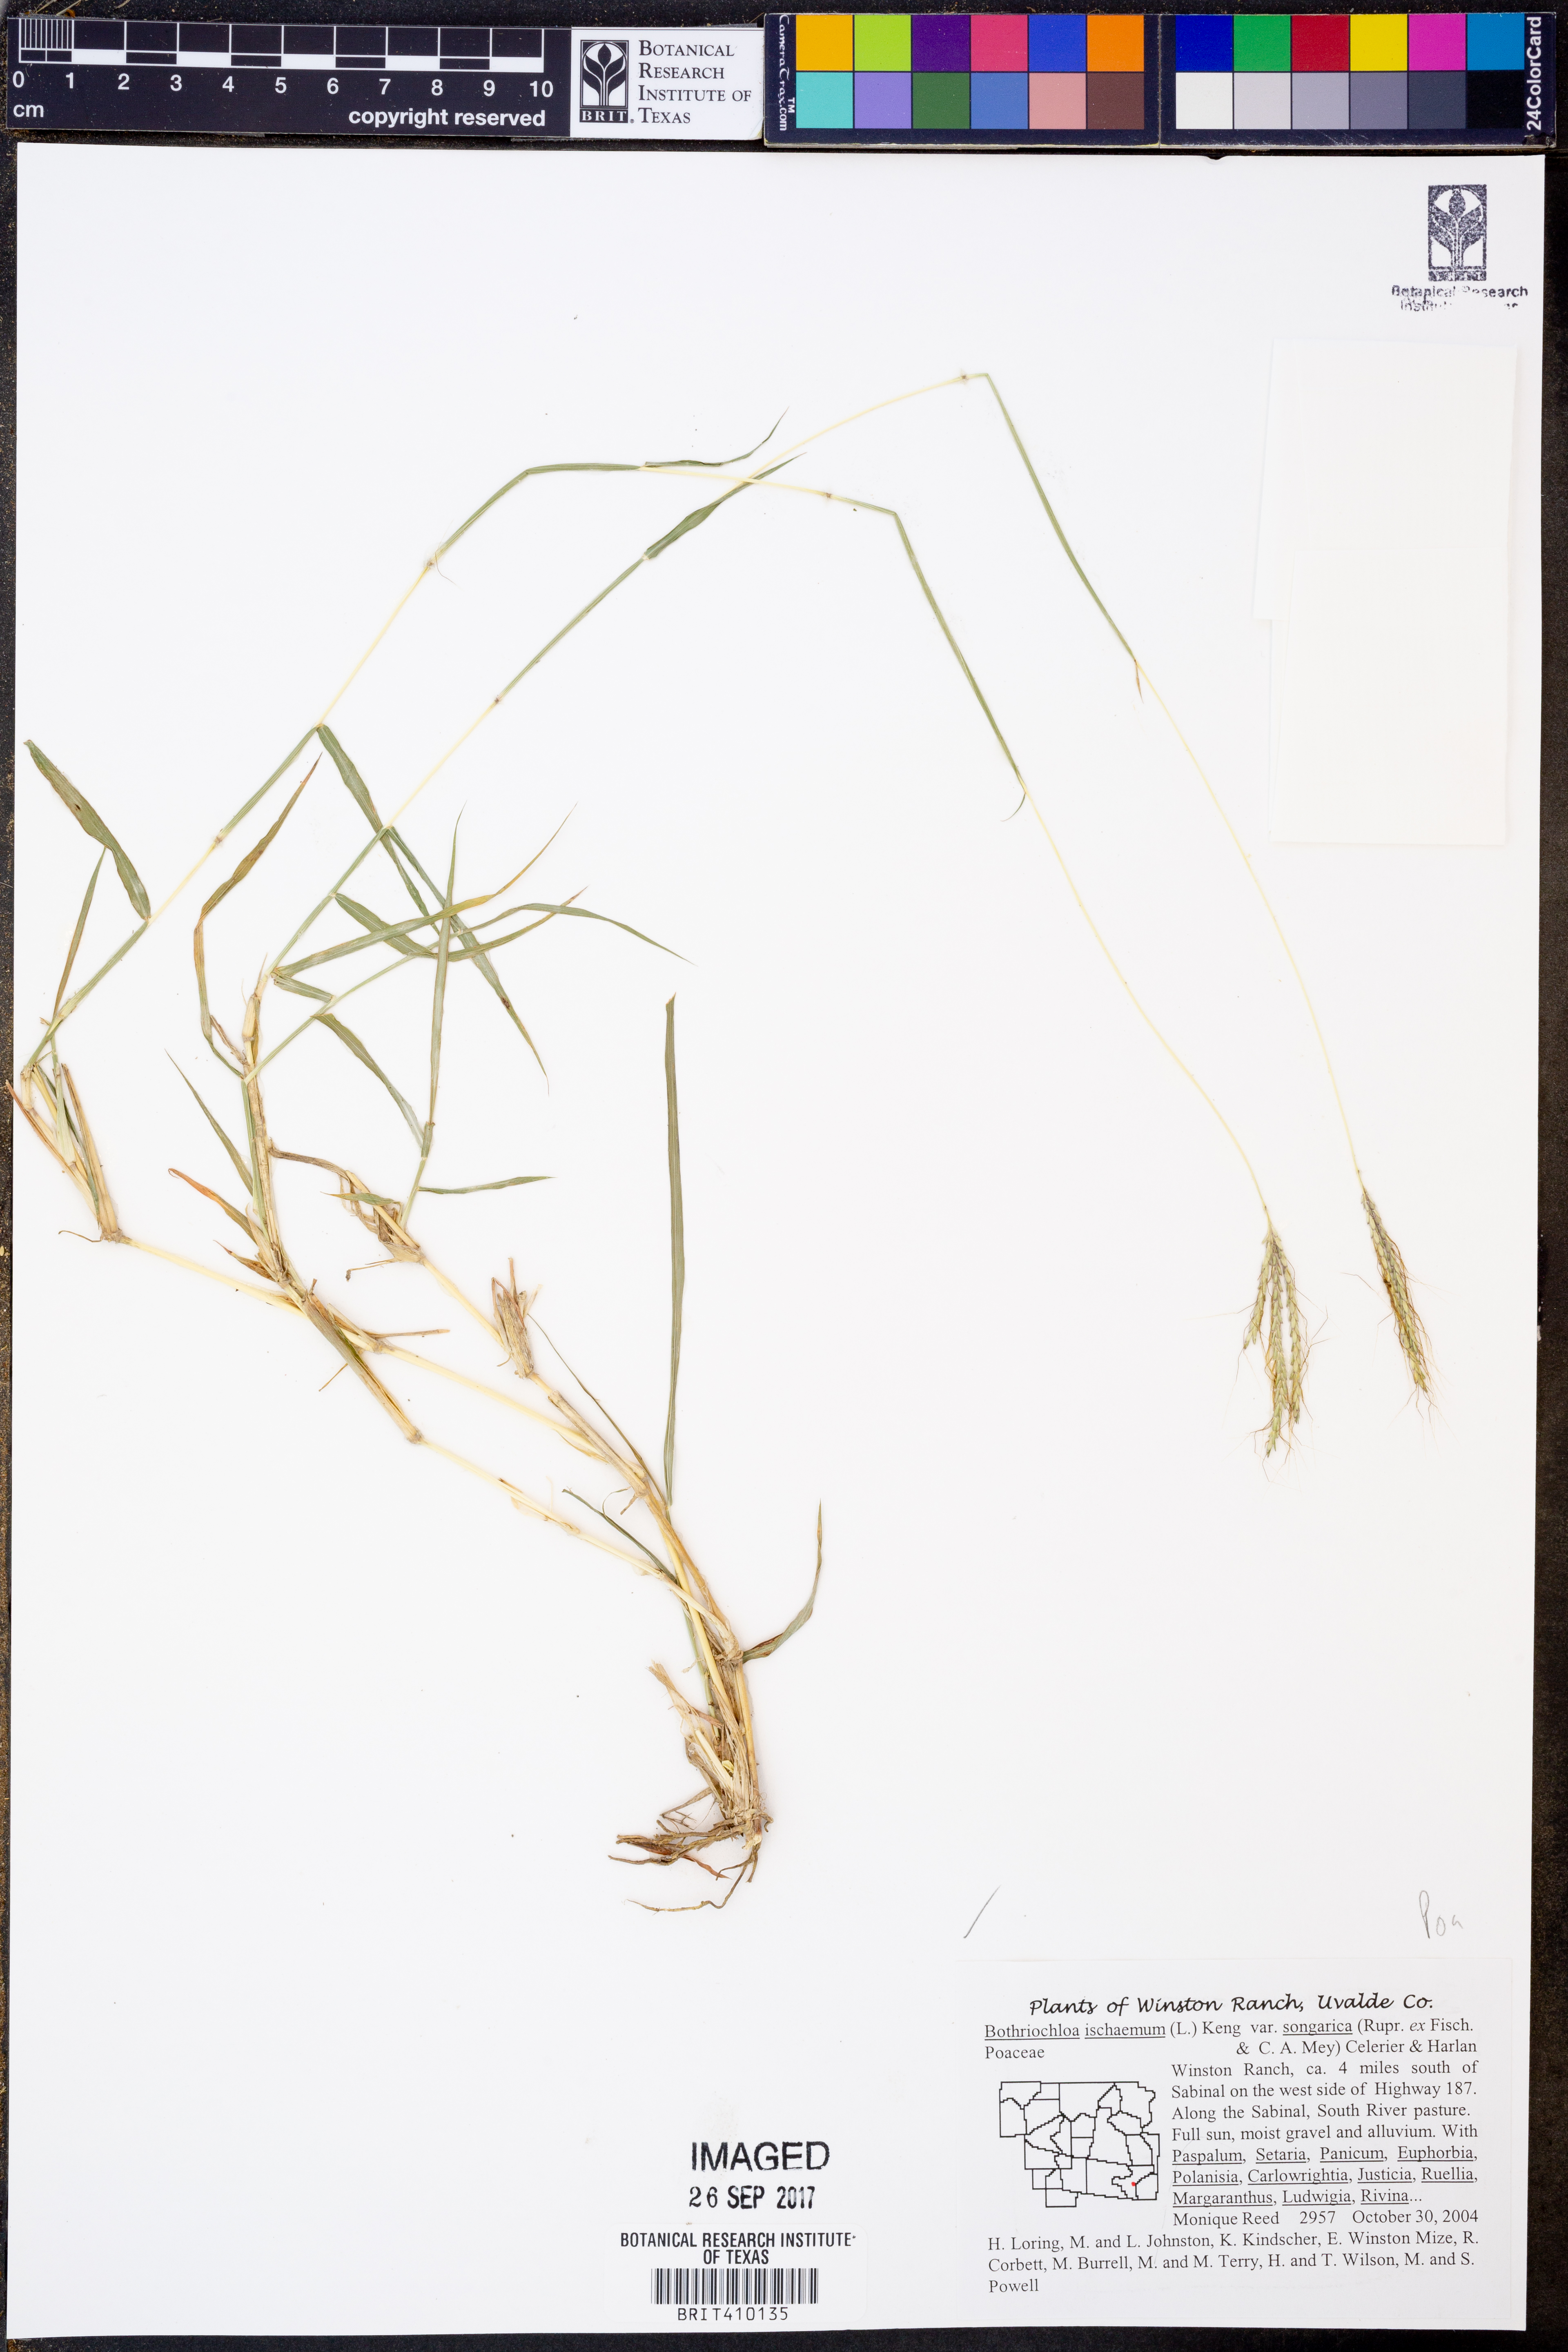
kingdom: Plantae
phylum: Tracheophyta
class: Liliopsida
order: Poales
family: Poaceae
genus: Bothriochloa
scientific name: Bothriochloa ischaemum
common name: Yellow bluestem
